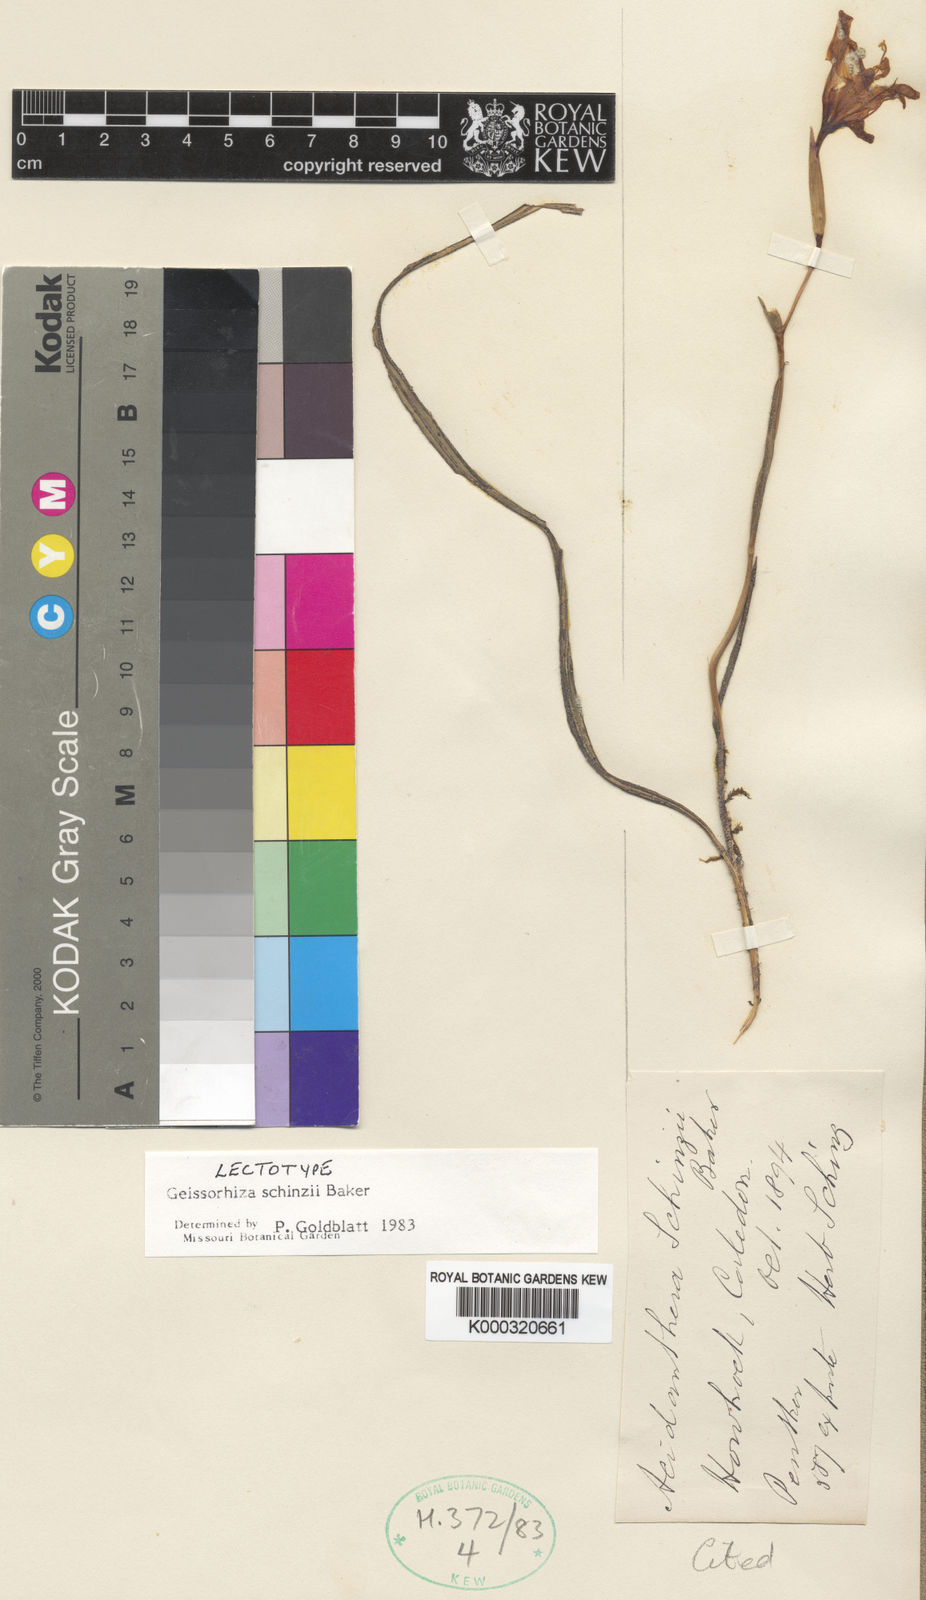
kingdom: Plantae
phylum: Tracheophyta
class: Liliopsida
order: Asparagales
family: Iridaceae
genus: Geissorhiza
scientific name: Geissorhiza schinzii
